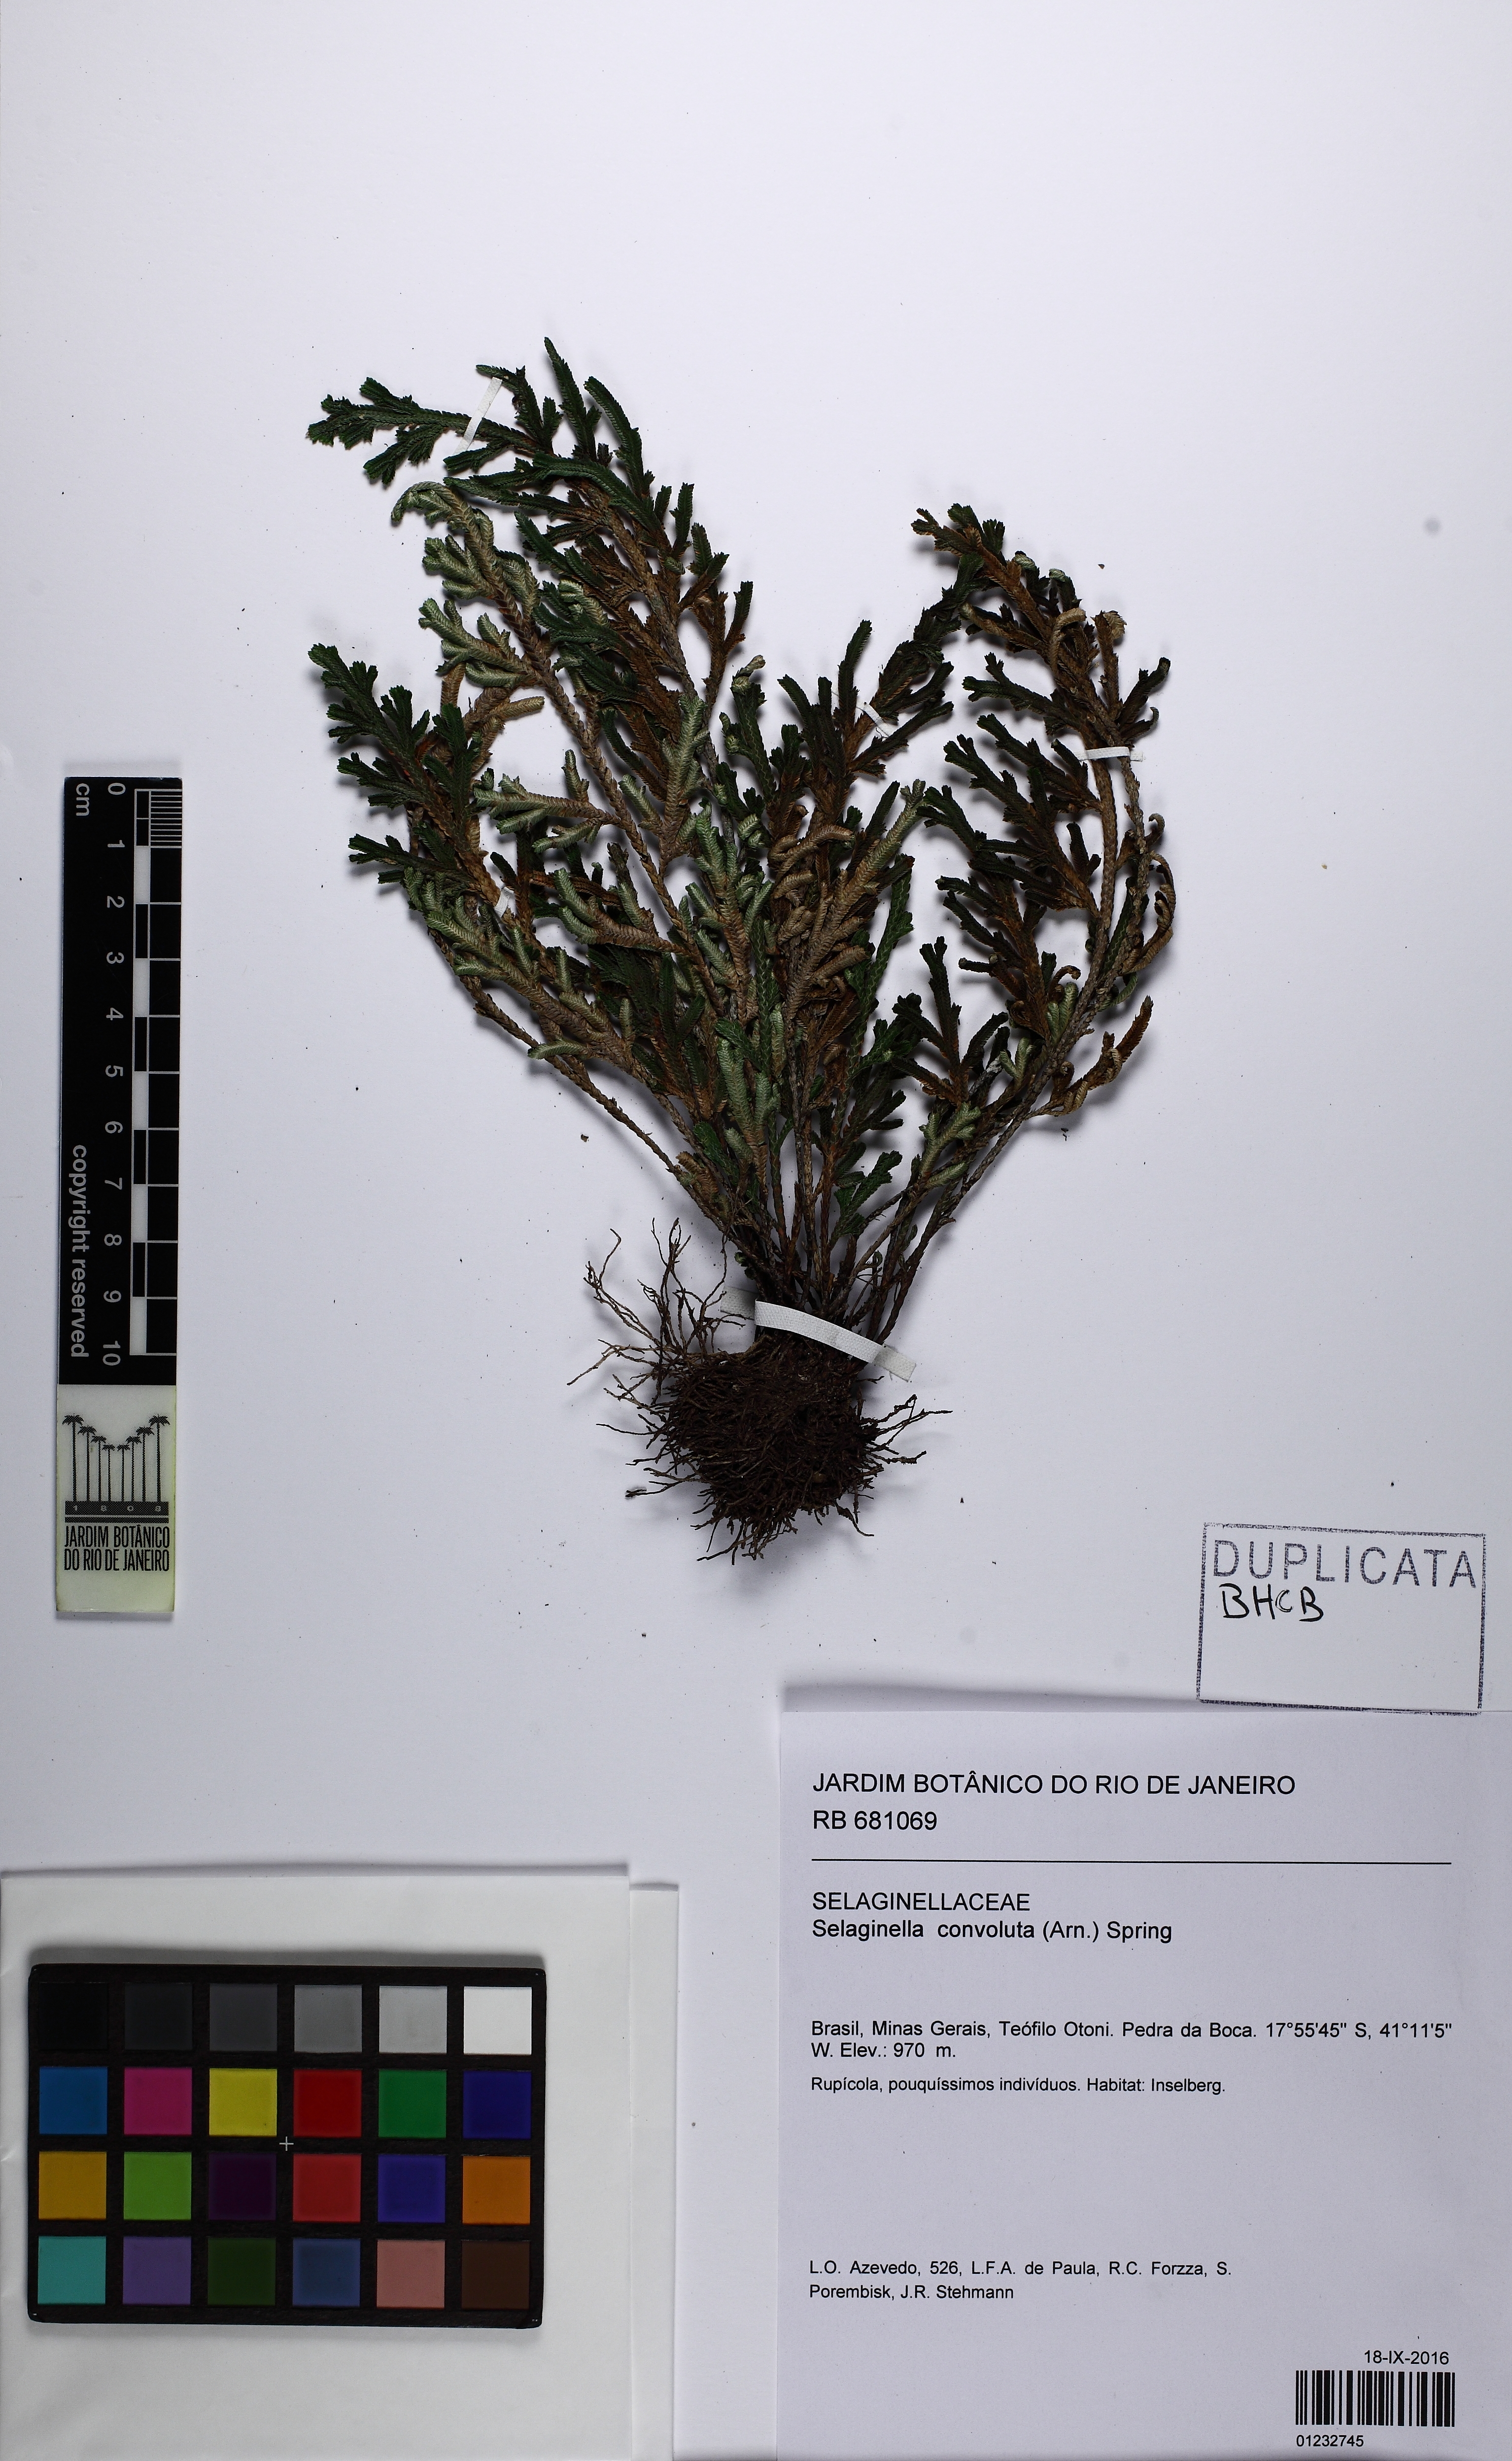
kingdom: Plantae
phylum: Tracheophyta
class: Lycopodiopsida
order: Selaginellales
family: Selaginellaceae
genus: Selaginella
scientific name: Selaginella convoluta
